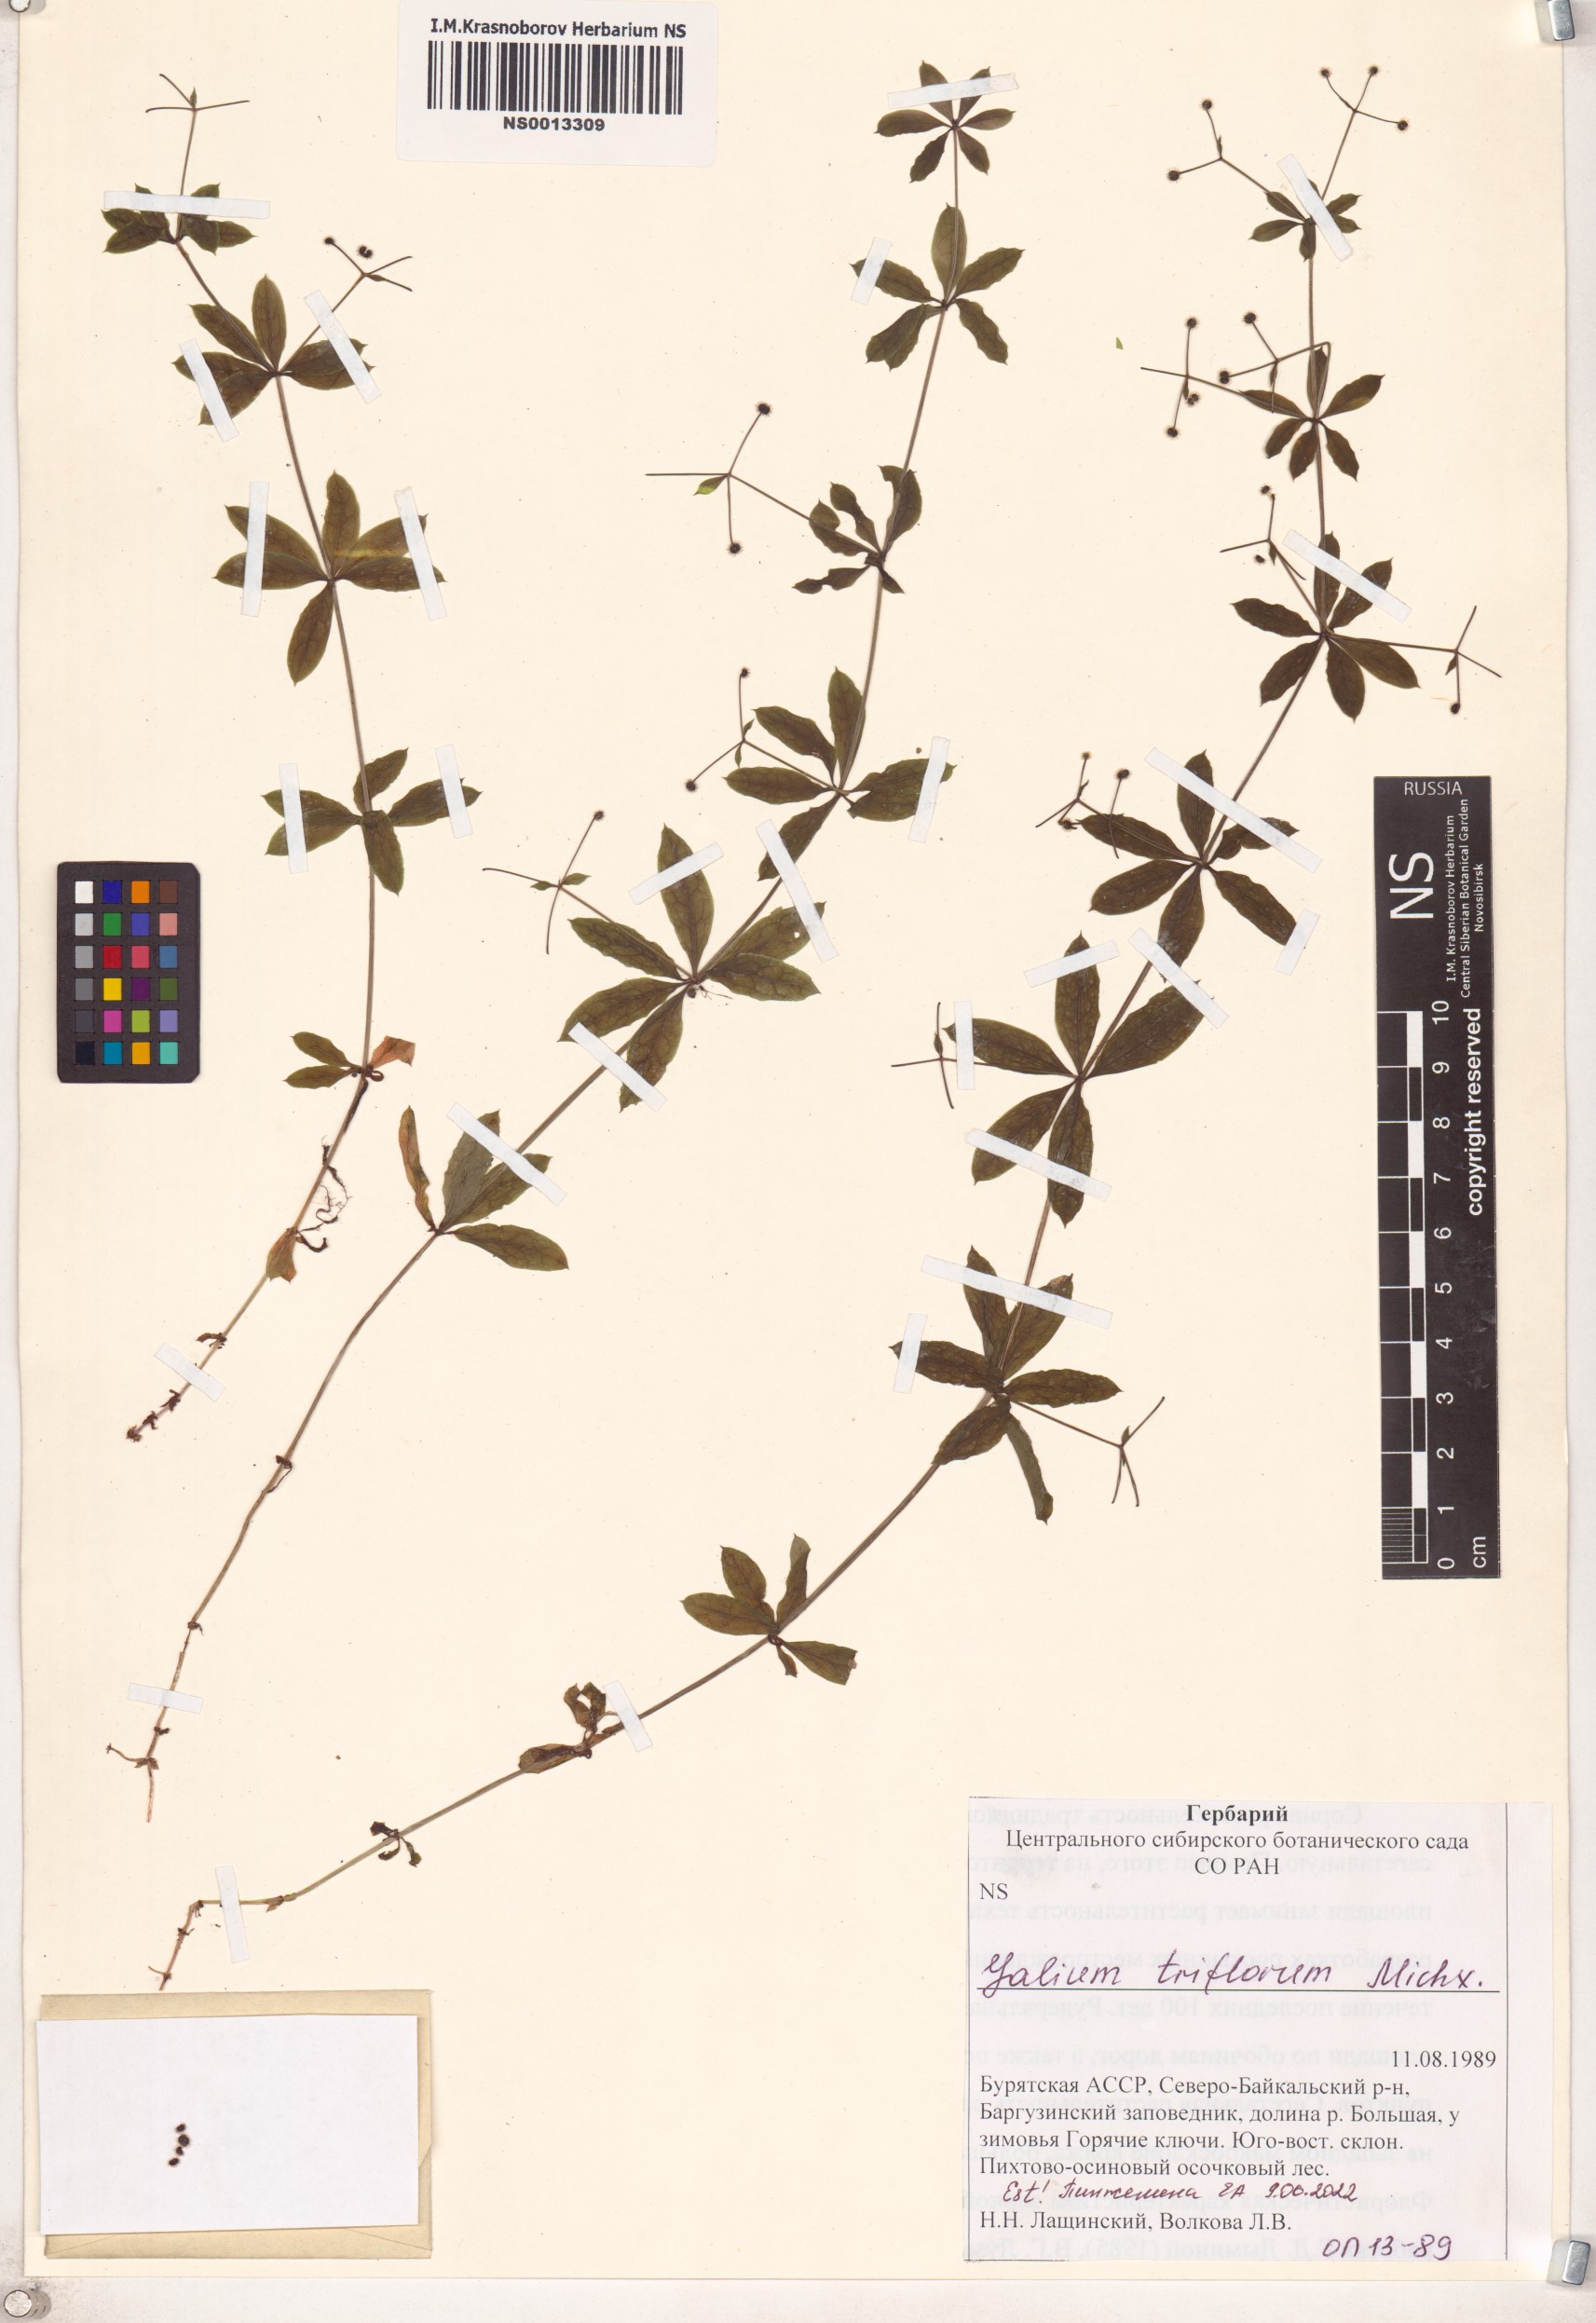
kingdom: Plantae
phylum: Tracheophyta
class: Magnoliopsida
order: Gentianales
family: Rubiaceae
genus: Galium
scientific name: Galium triflorum
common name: Fragrant bedstraw
